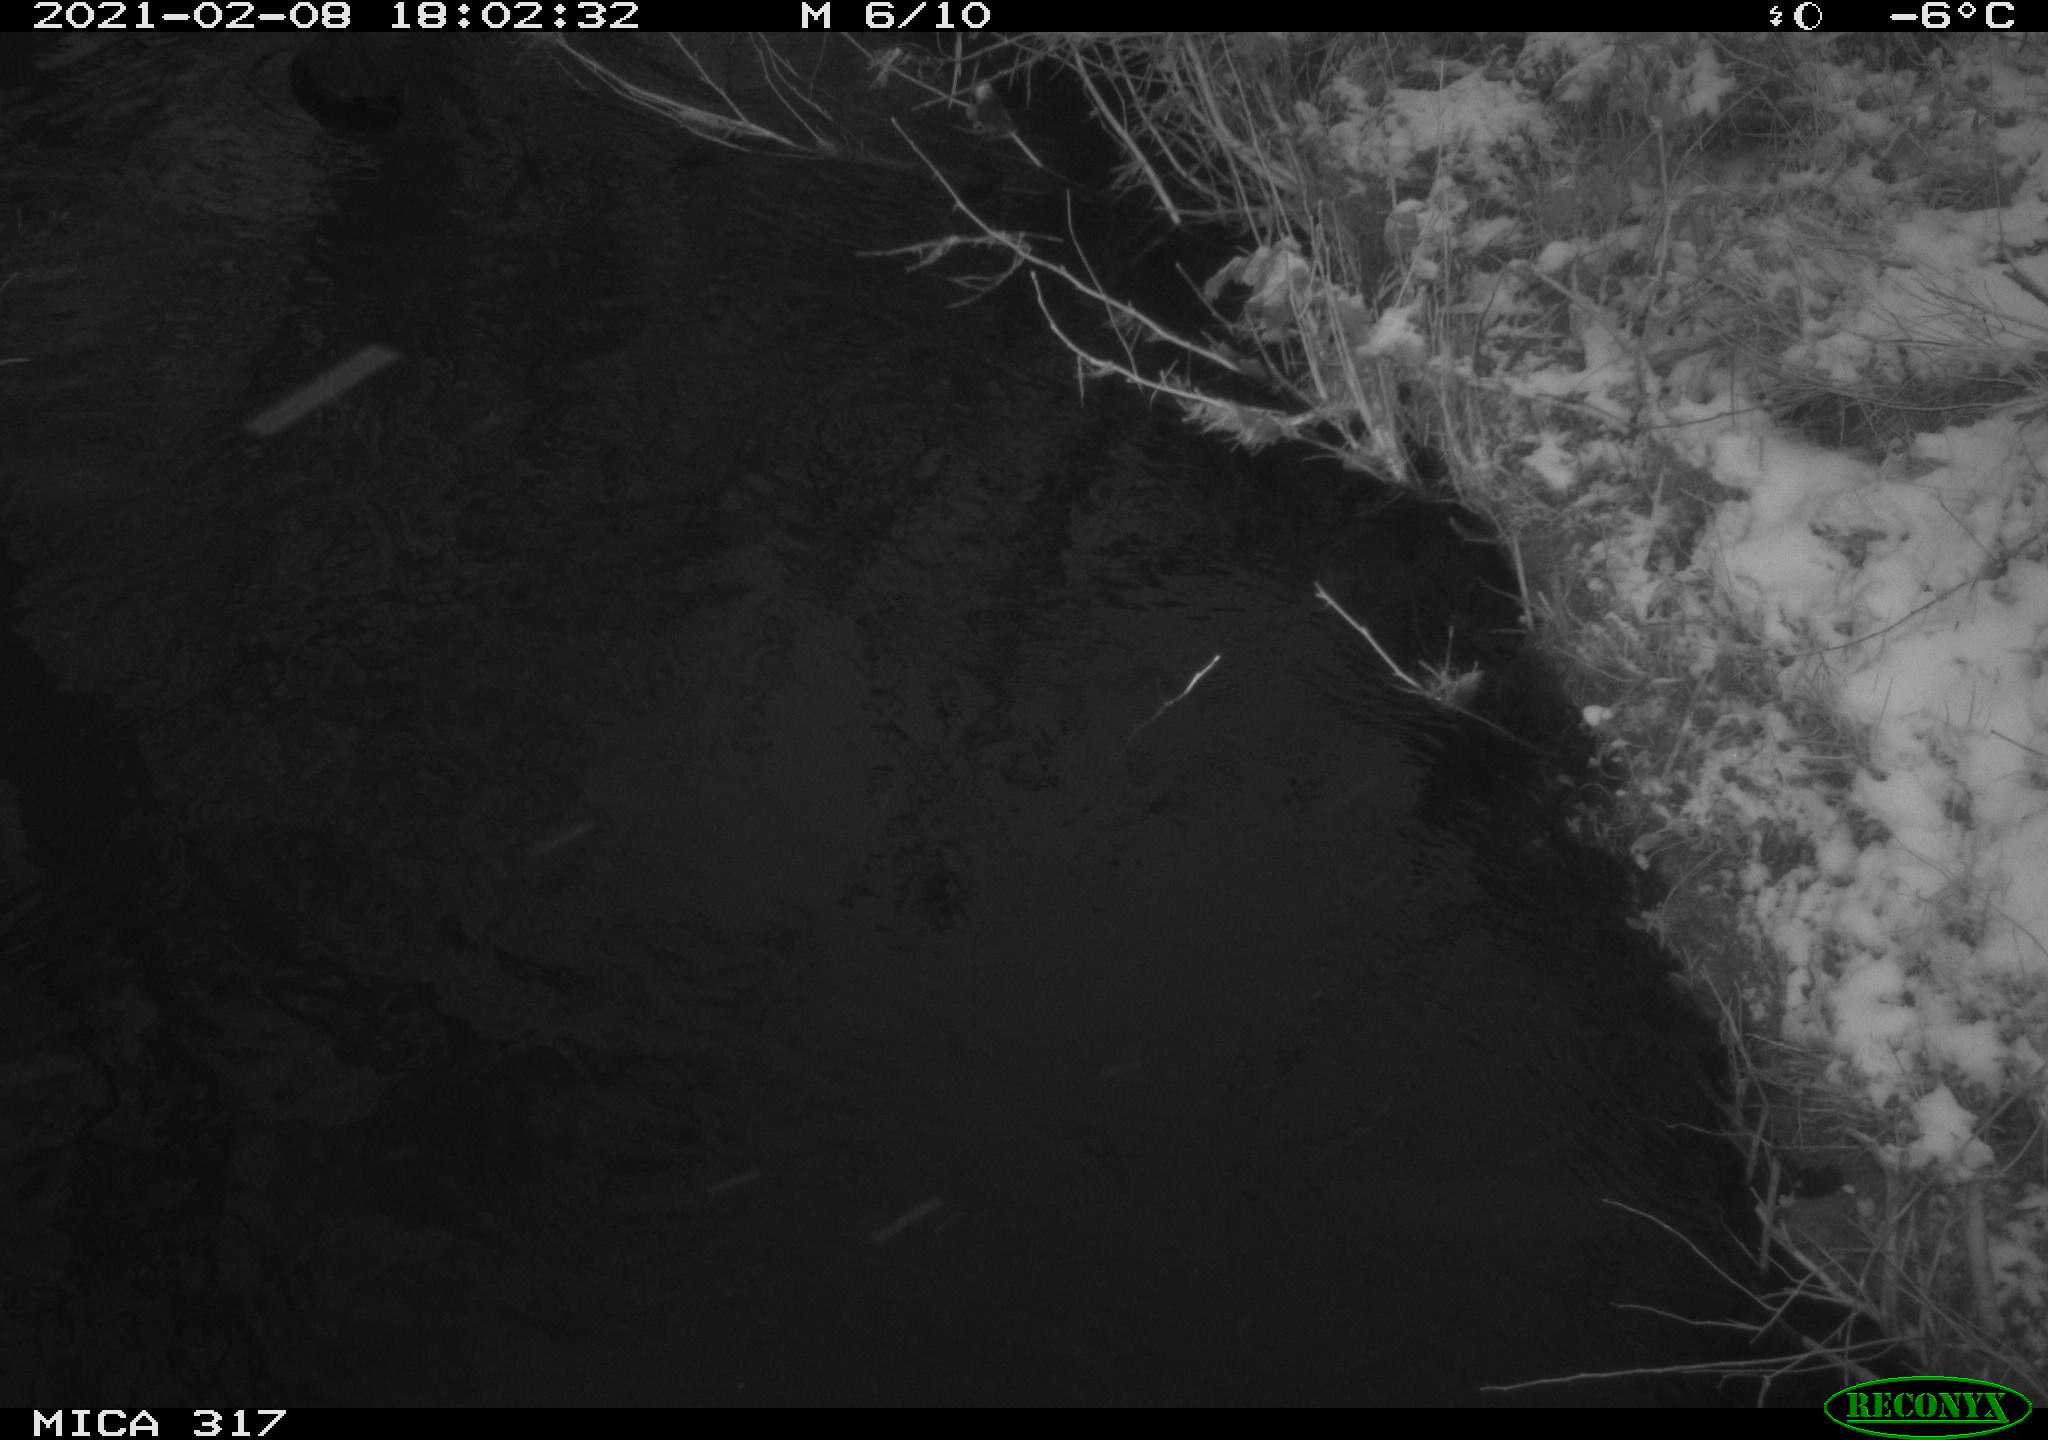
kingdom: Animalia
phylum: Chordata
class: Aves
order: Gruiformes
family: Rallidae
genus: Fulica
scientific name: Fulica atra
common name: Eurasian coot
